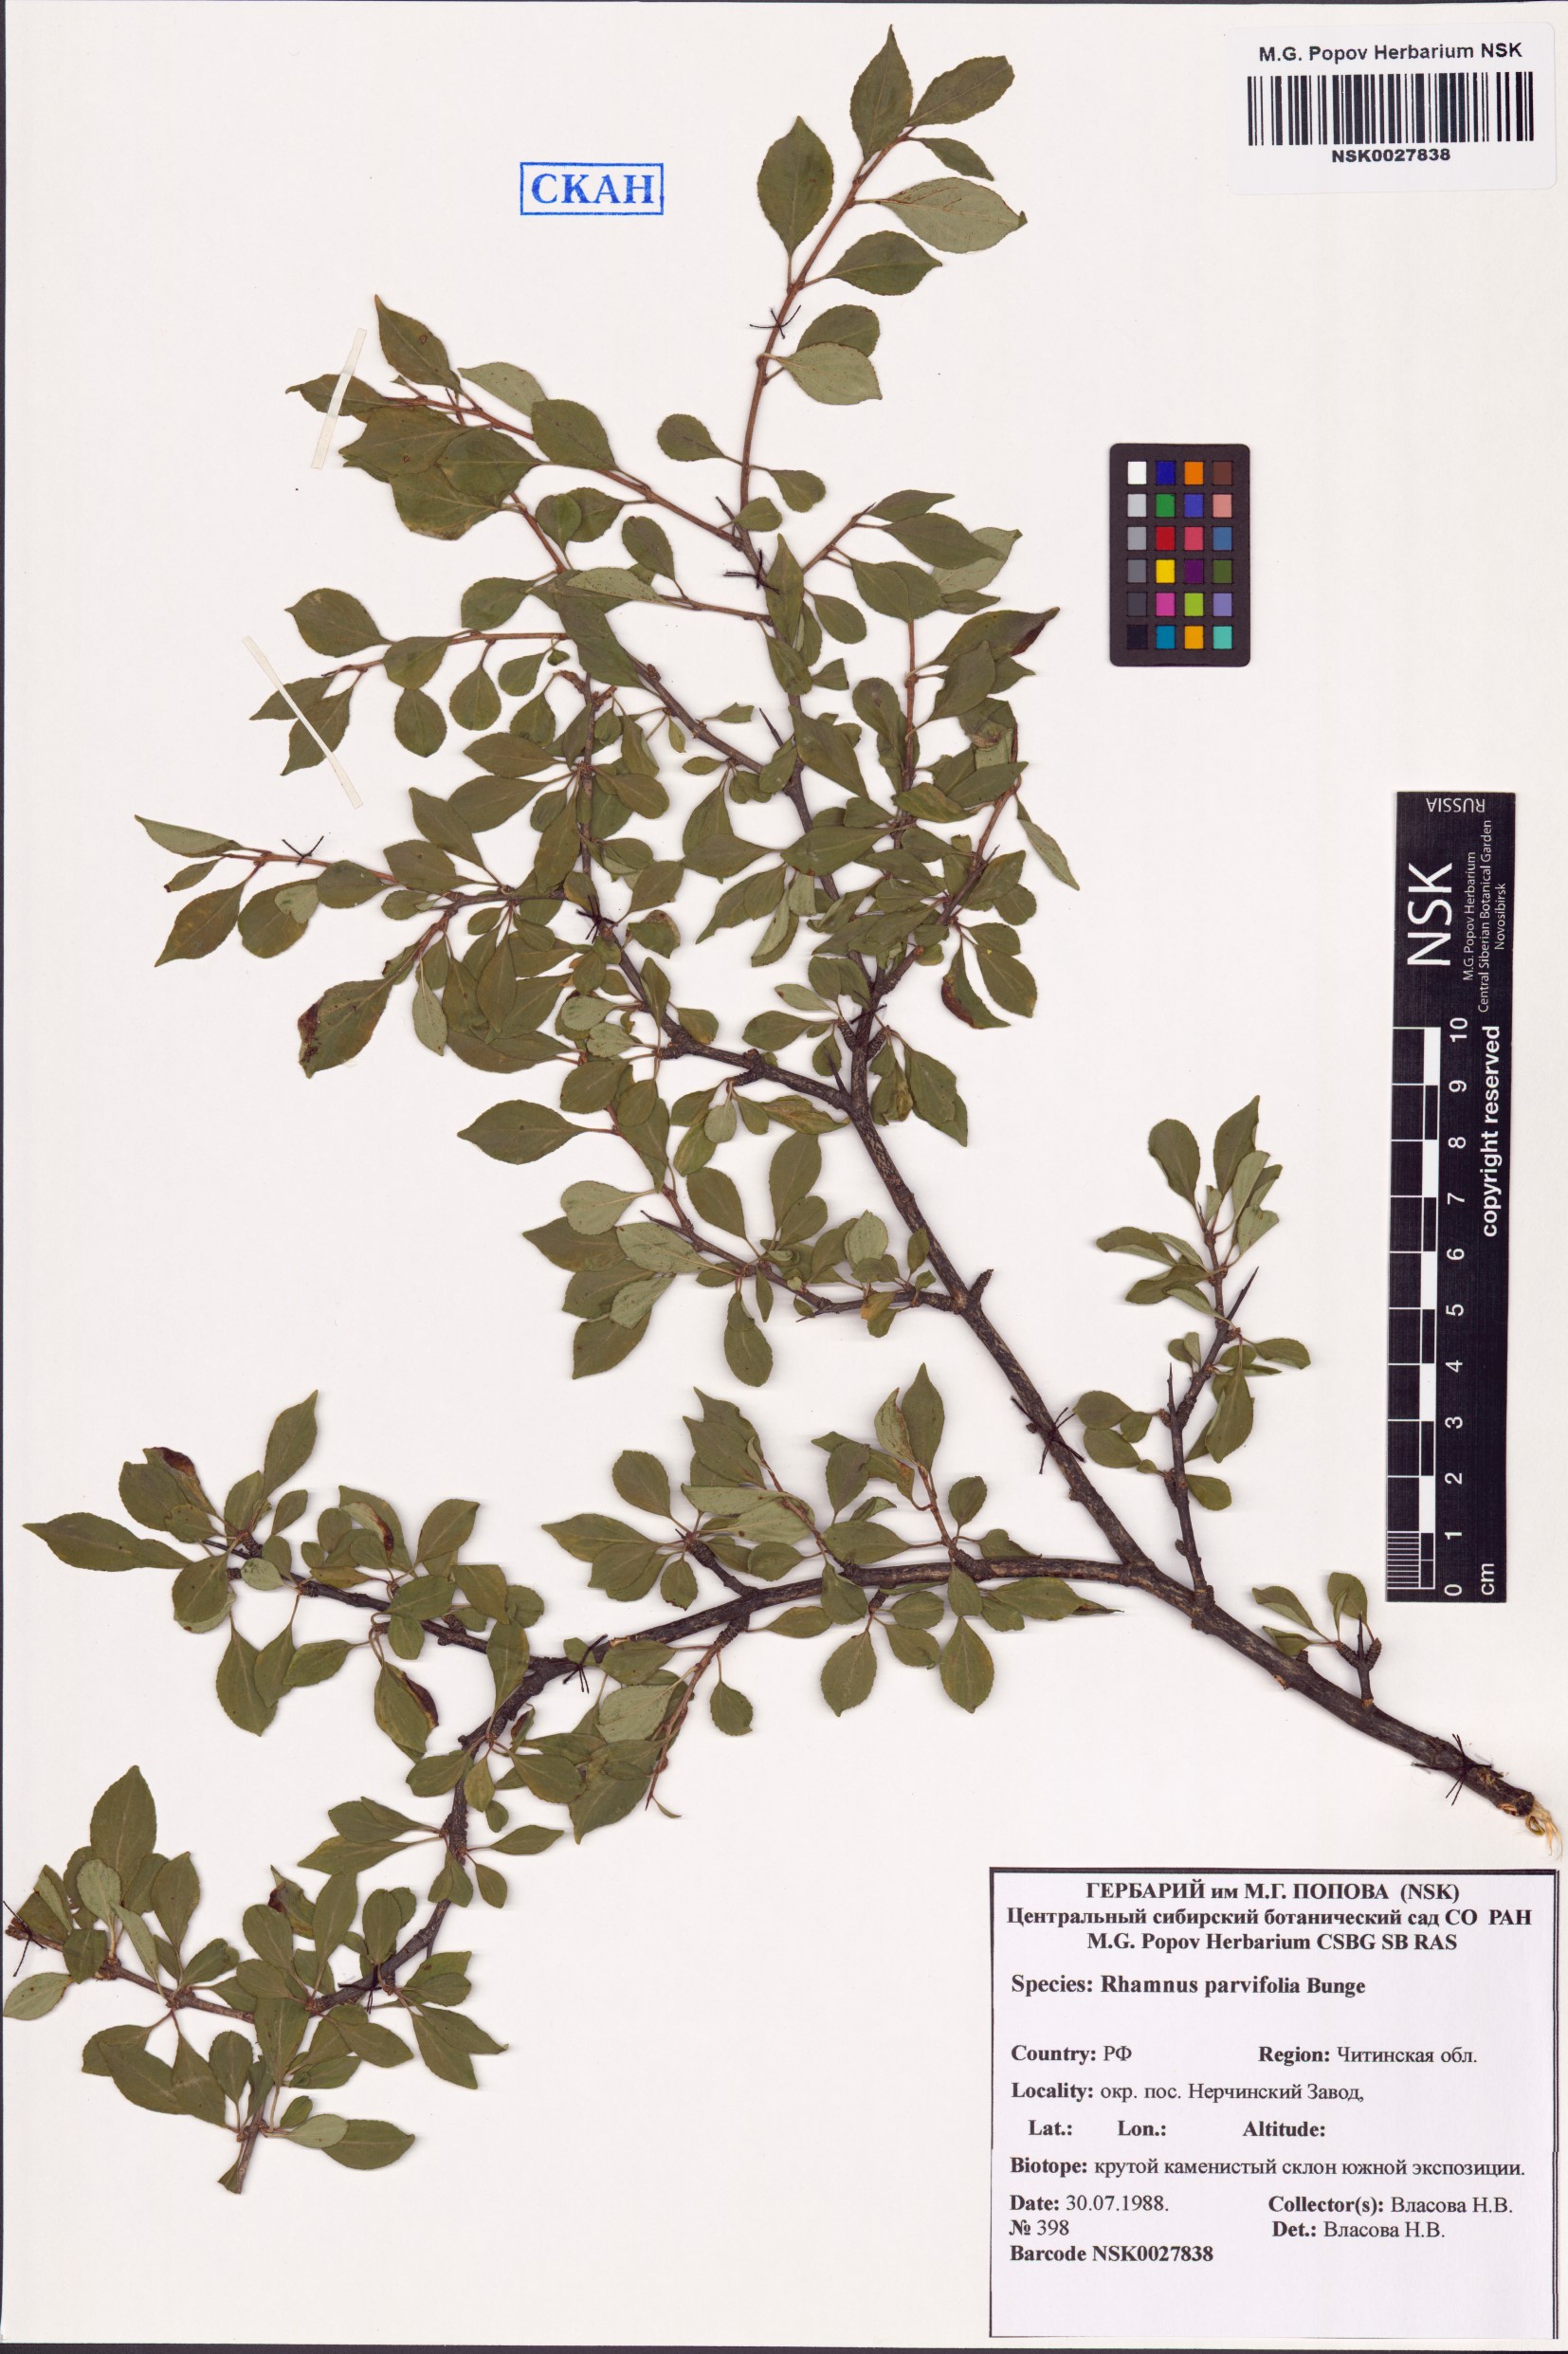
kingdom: Plantae
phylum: Tracheophyta
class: Magnoliopsida
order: Rosales
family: Rhamnaceae
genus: Rhamnus
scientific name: Rhamnus parvifolia
